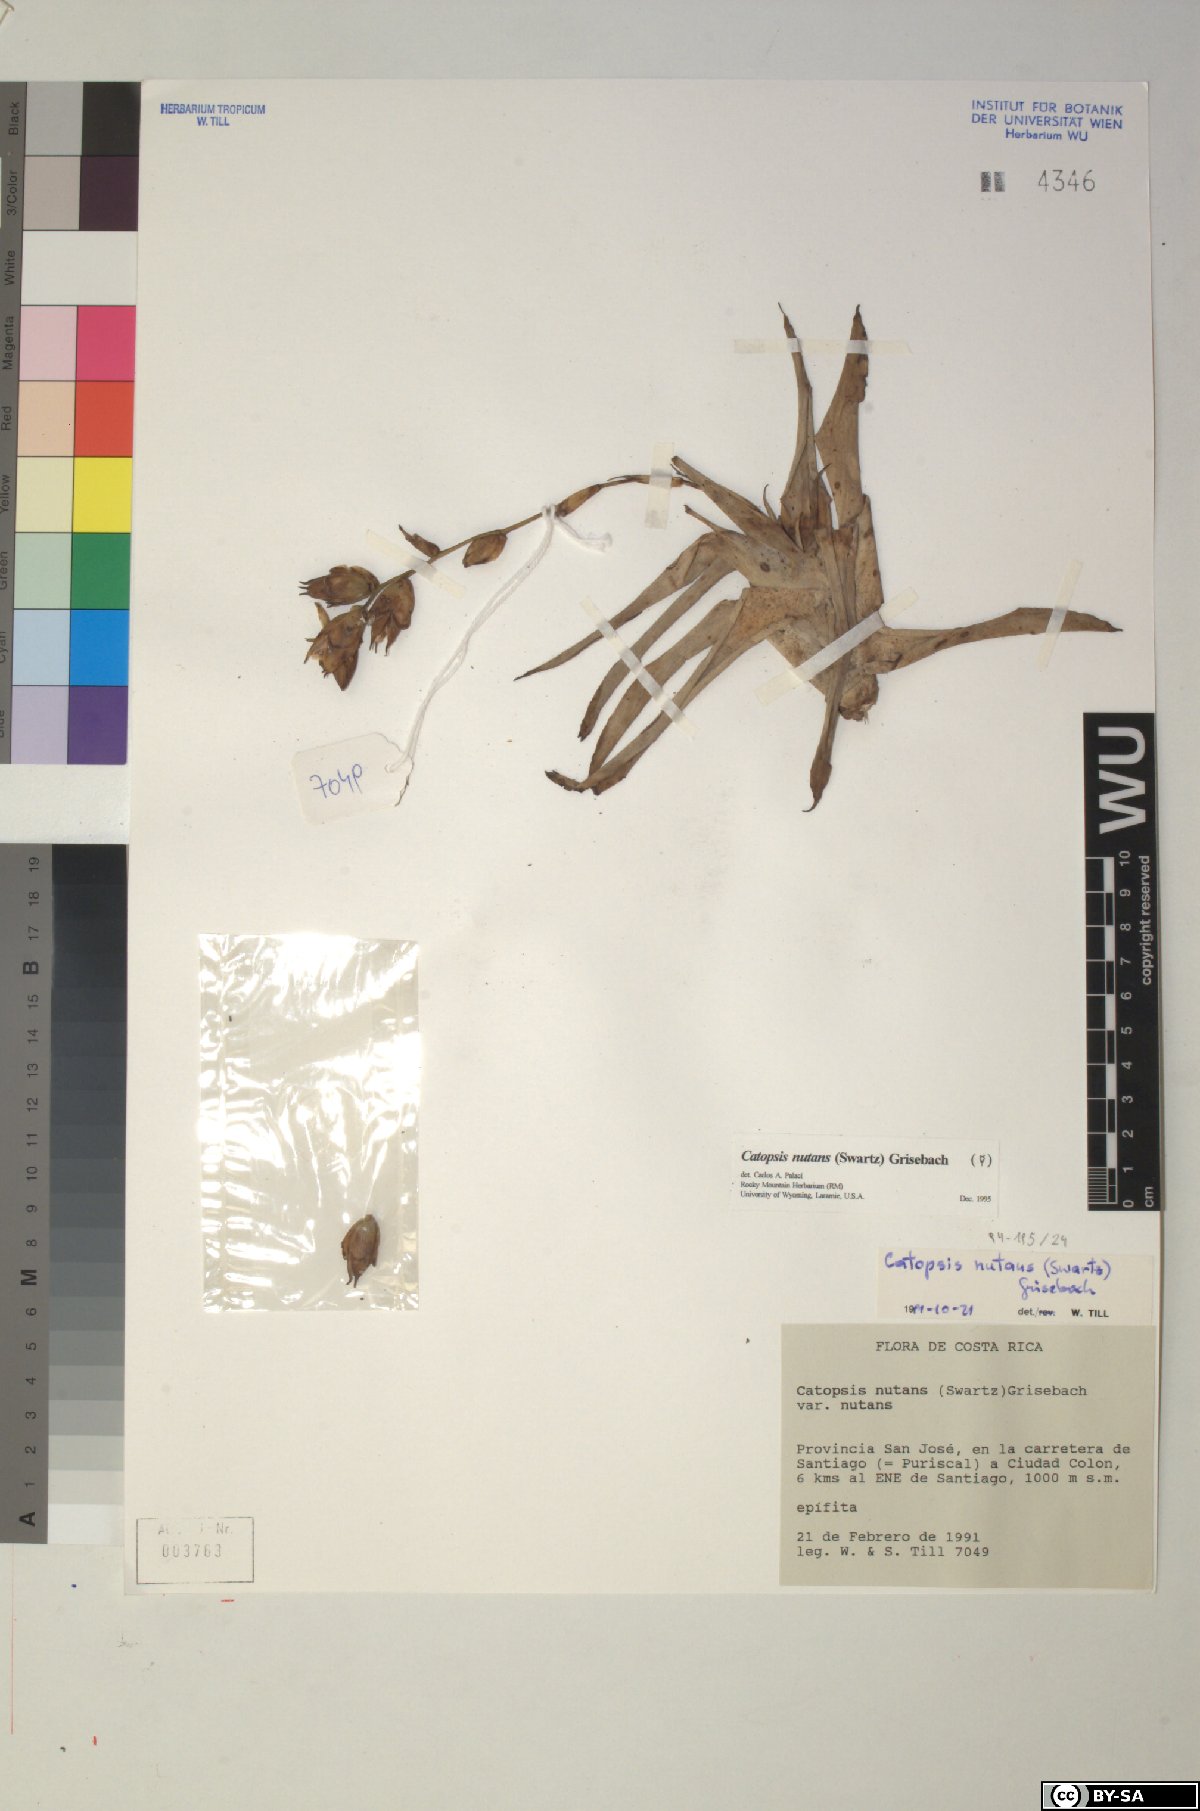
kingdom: Plantae
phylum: Tracheophyta
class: Liliopsida
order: Poales
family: Bromeliaceae
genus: Catopsis
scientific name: Catopsis nutans
